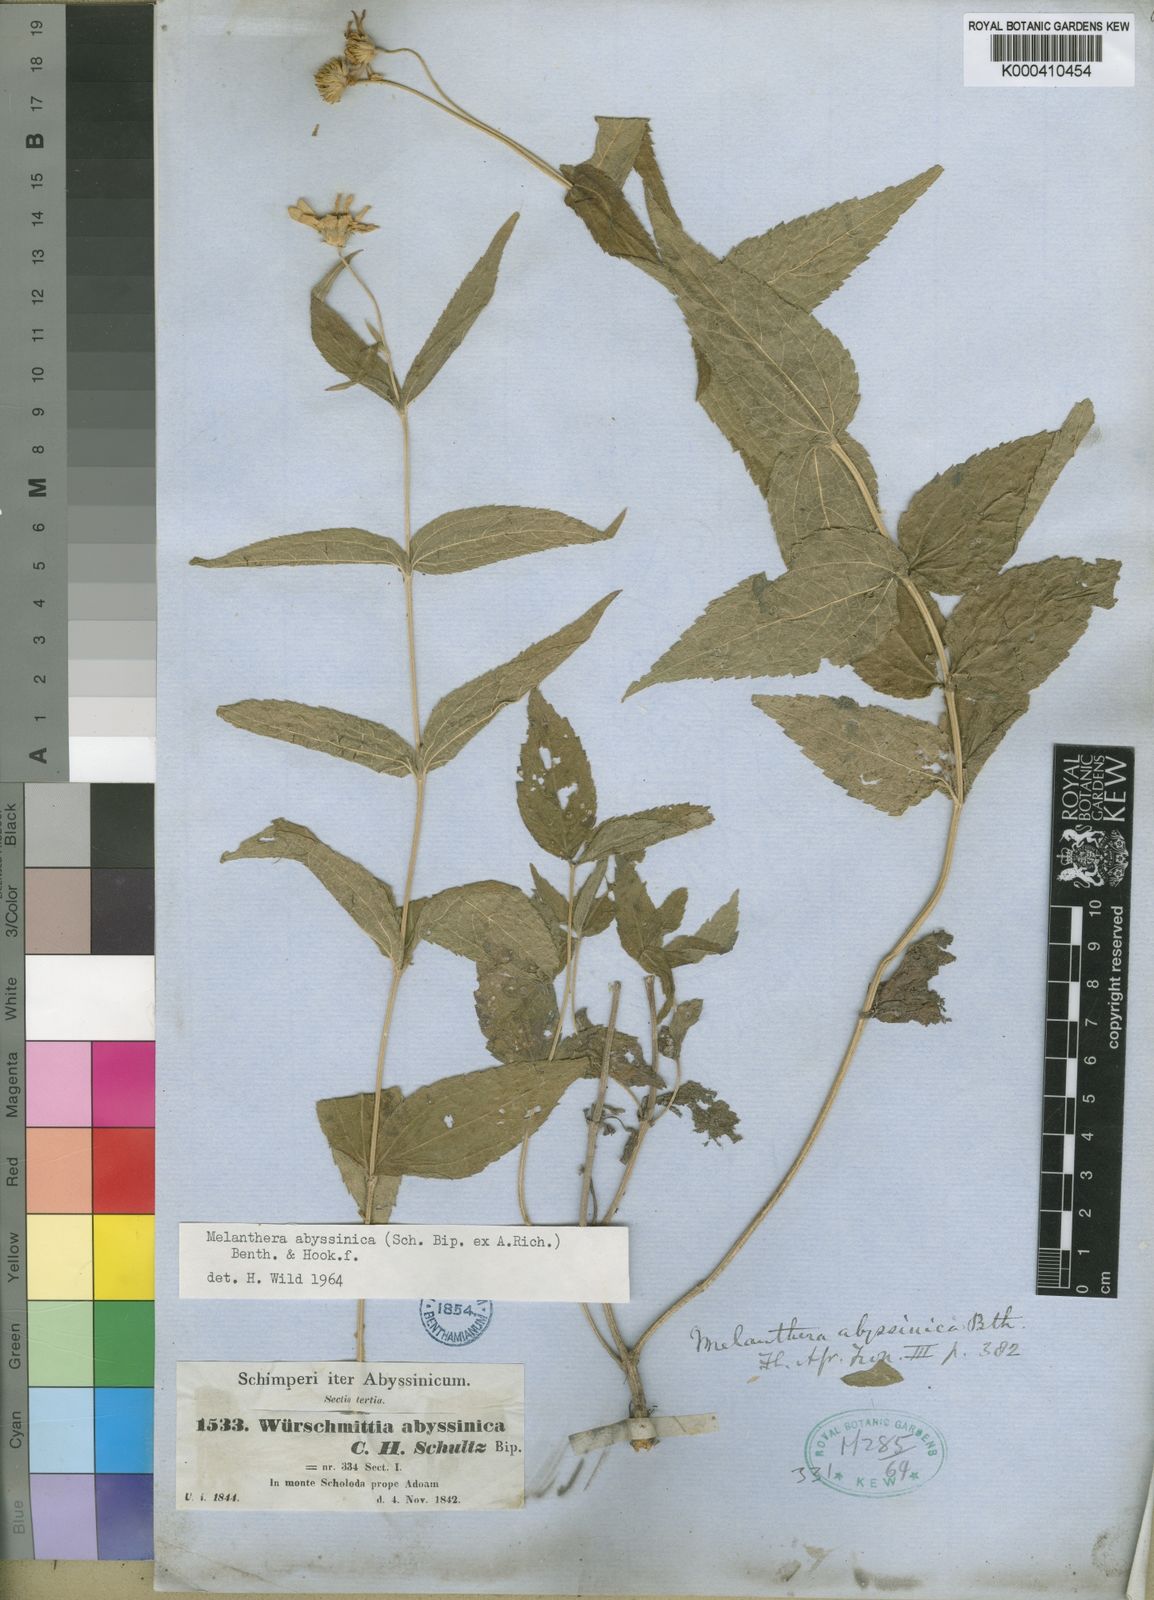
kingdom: Plantae
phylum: Tracheophyta
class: Magnoliopsida
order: Asterales
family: Asteraceae
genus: Lipotriche
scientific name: Lipotriche abyssinica
